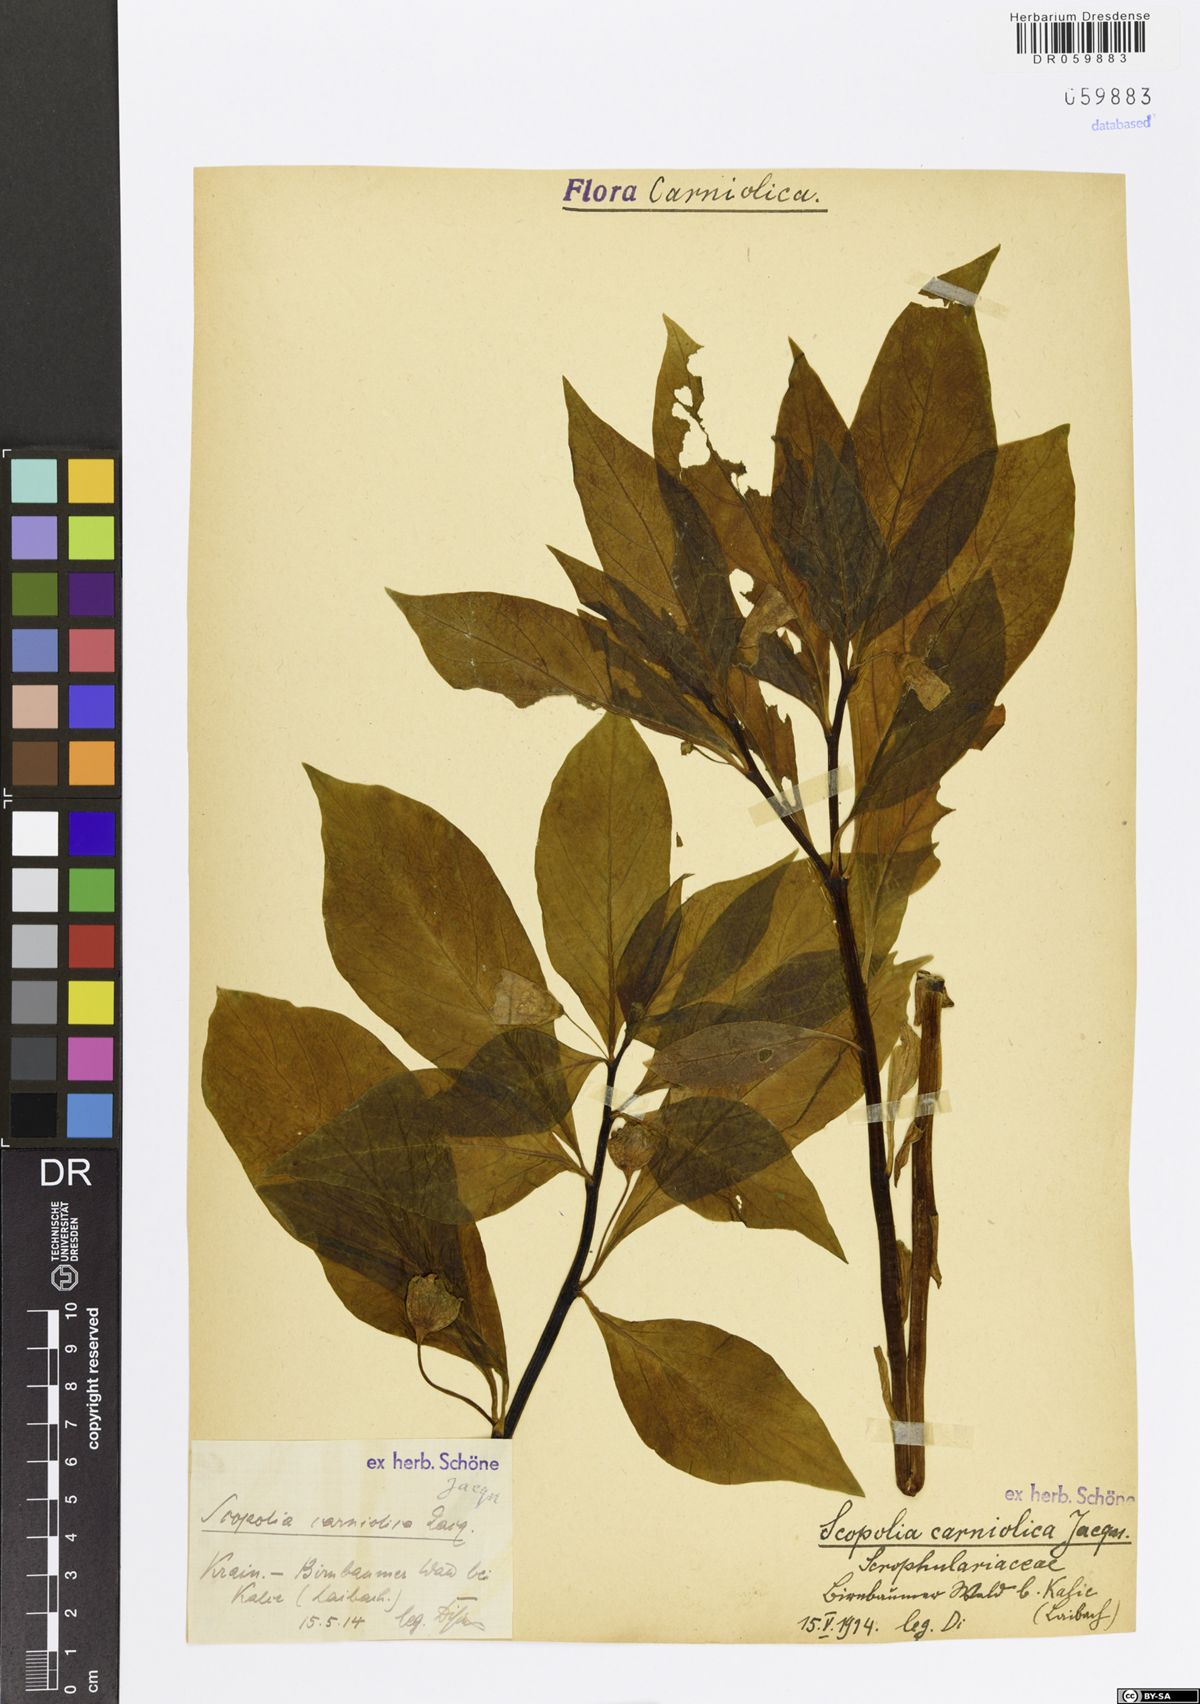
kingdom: Plantae
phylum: Tracheophyta
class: Magnoliopsida
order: Solanales
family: Solanaceae
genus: Scopolia
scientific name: Scopolia carniolica
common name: Scopolia
